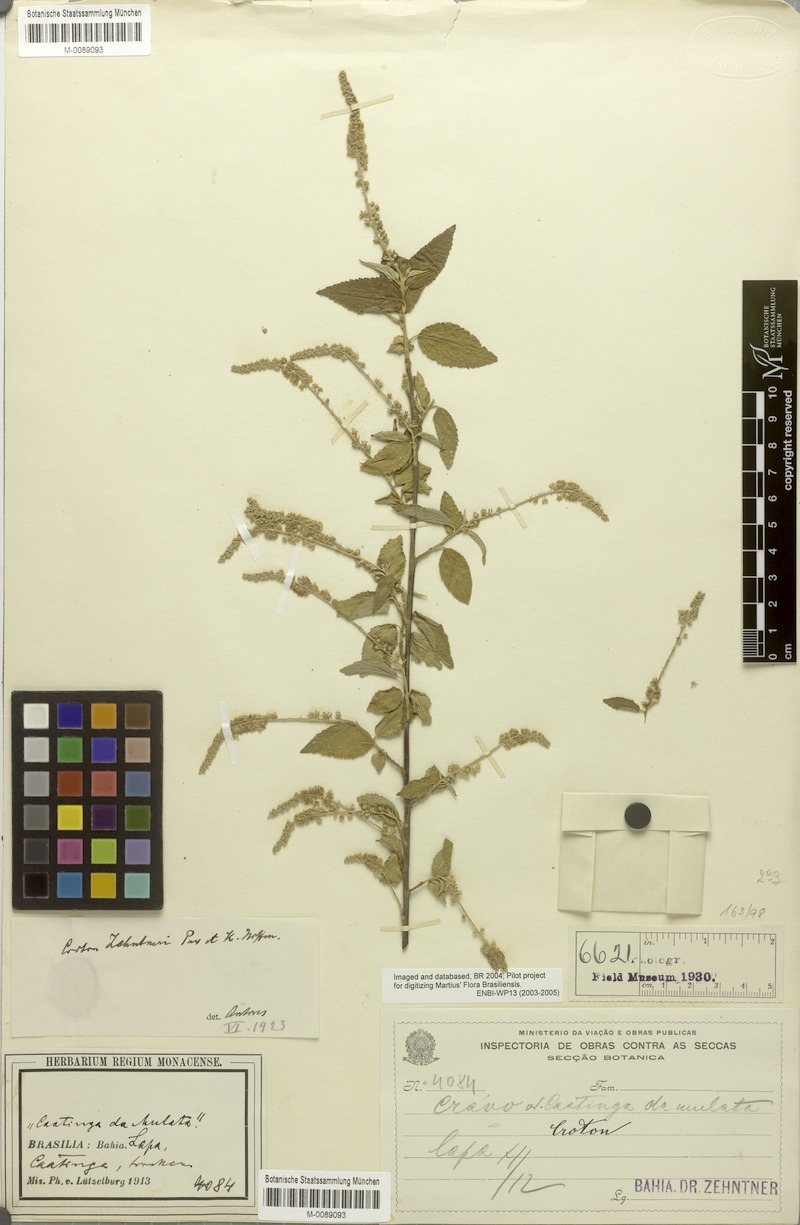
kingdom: Plantae
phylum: Tracheophyta
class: Magnoliopsida
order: Malpighiales
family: Euphorbiaceae
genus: Croton
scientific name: Croton grewioides
